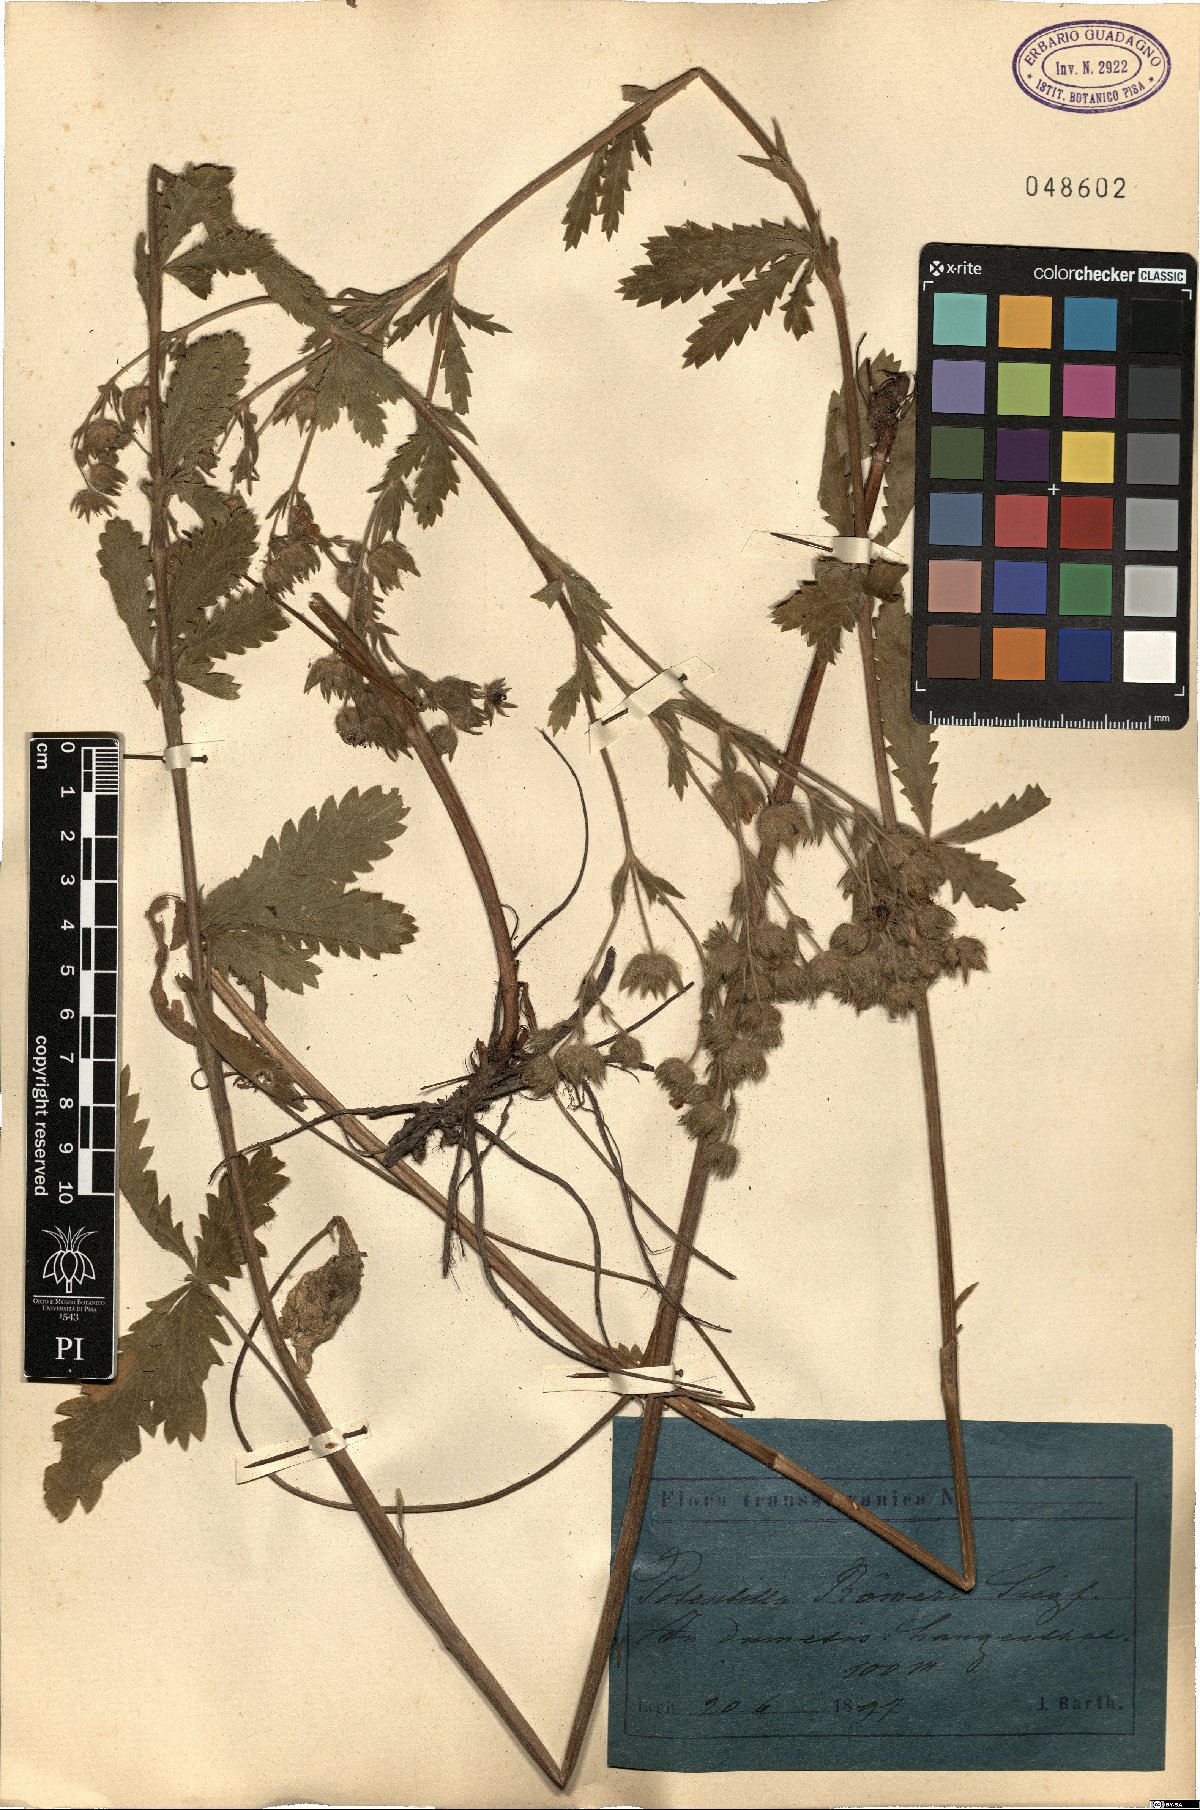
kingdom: Plantae
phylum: Tracheophyta
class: Magnoliopsida
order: Rosales
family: Rosaceae
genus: Potentilla
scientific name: Potentilla recta
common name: Sulphur cinquefoil
